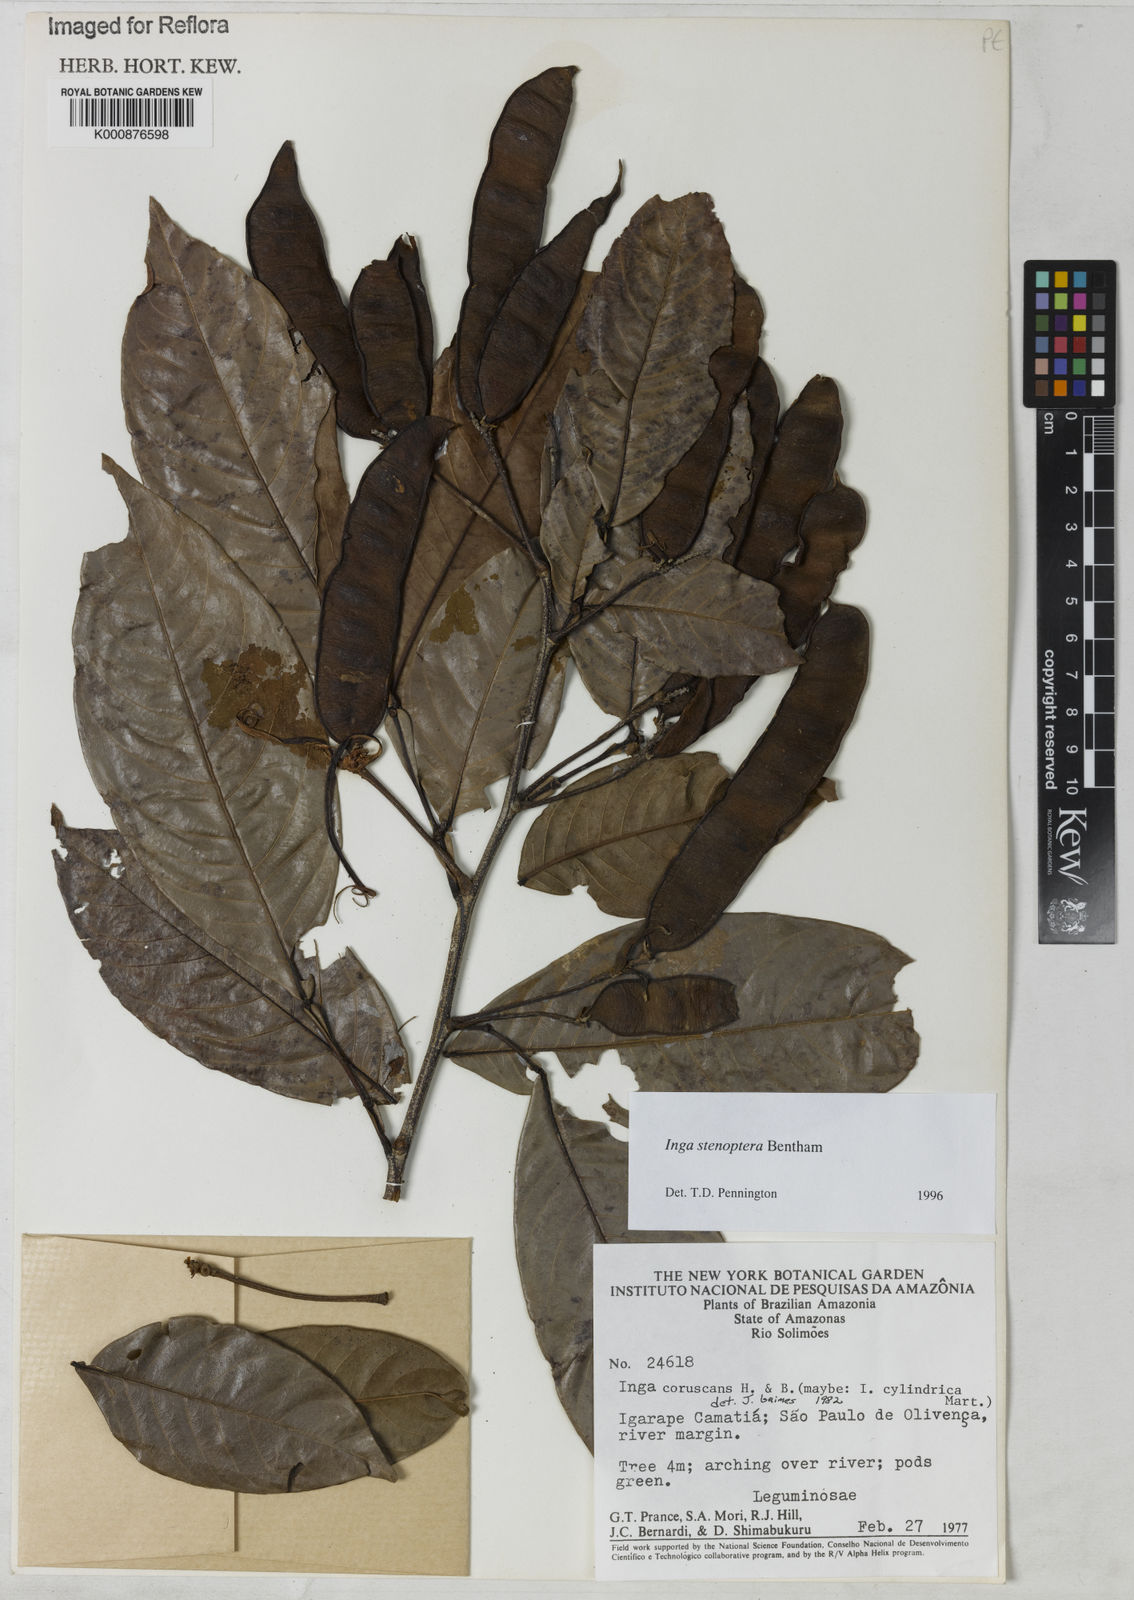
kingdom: Plantae
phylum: Tracheophyta
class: Magnoliopsida
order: Fabales
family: Fabaceae
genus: Inga
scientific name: Inga stenoptera
